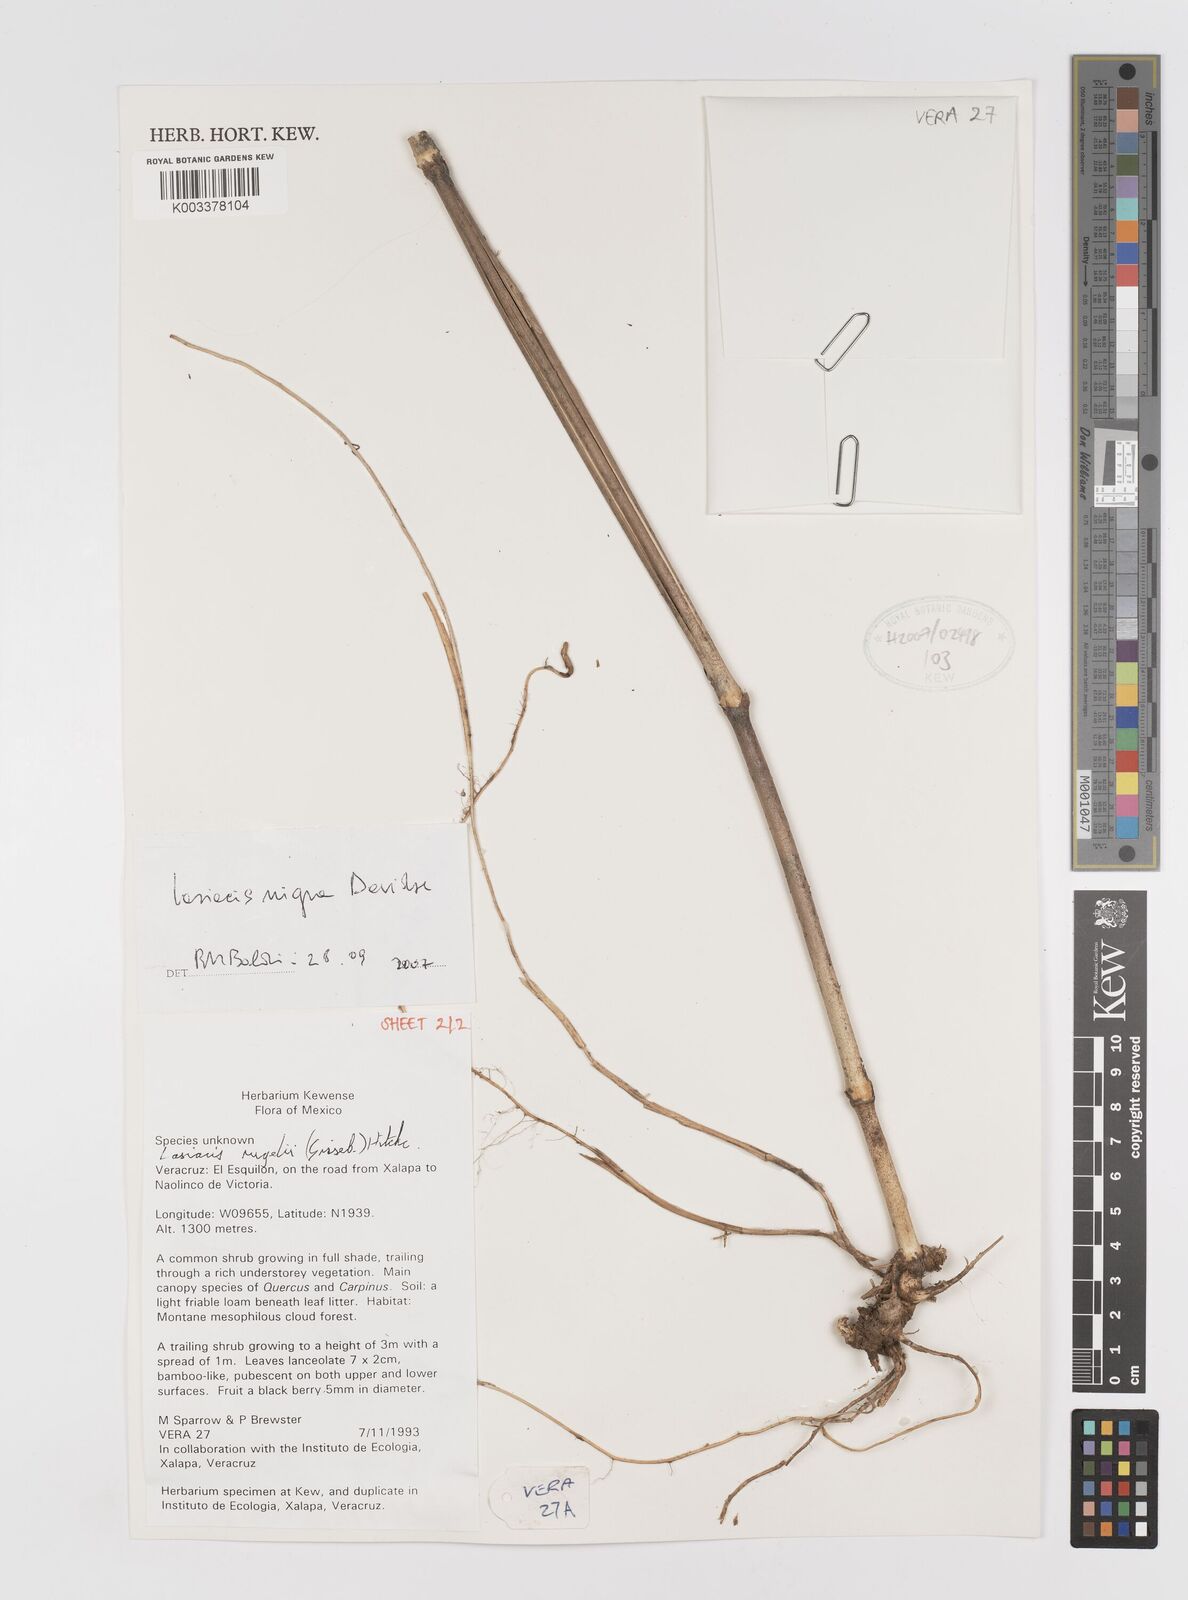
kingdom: Plantae
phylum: Tracheophyta
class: Liliopsida
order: Poales
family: Poaceae
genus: Lasiacis
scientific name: Lasiacis nigra
